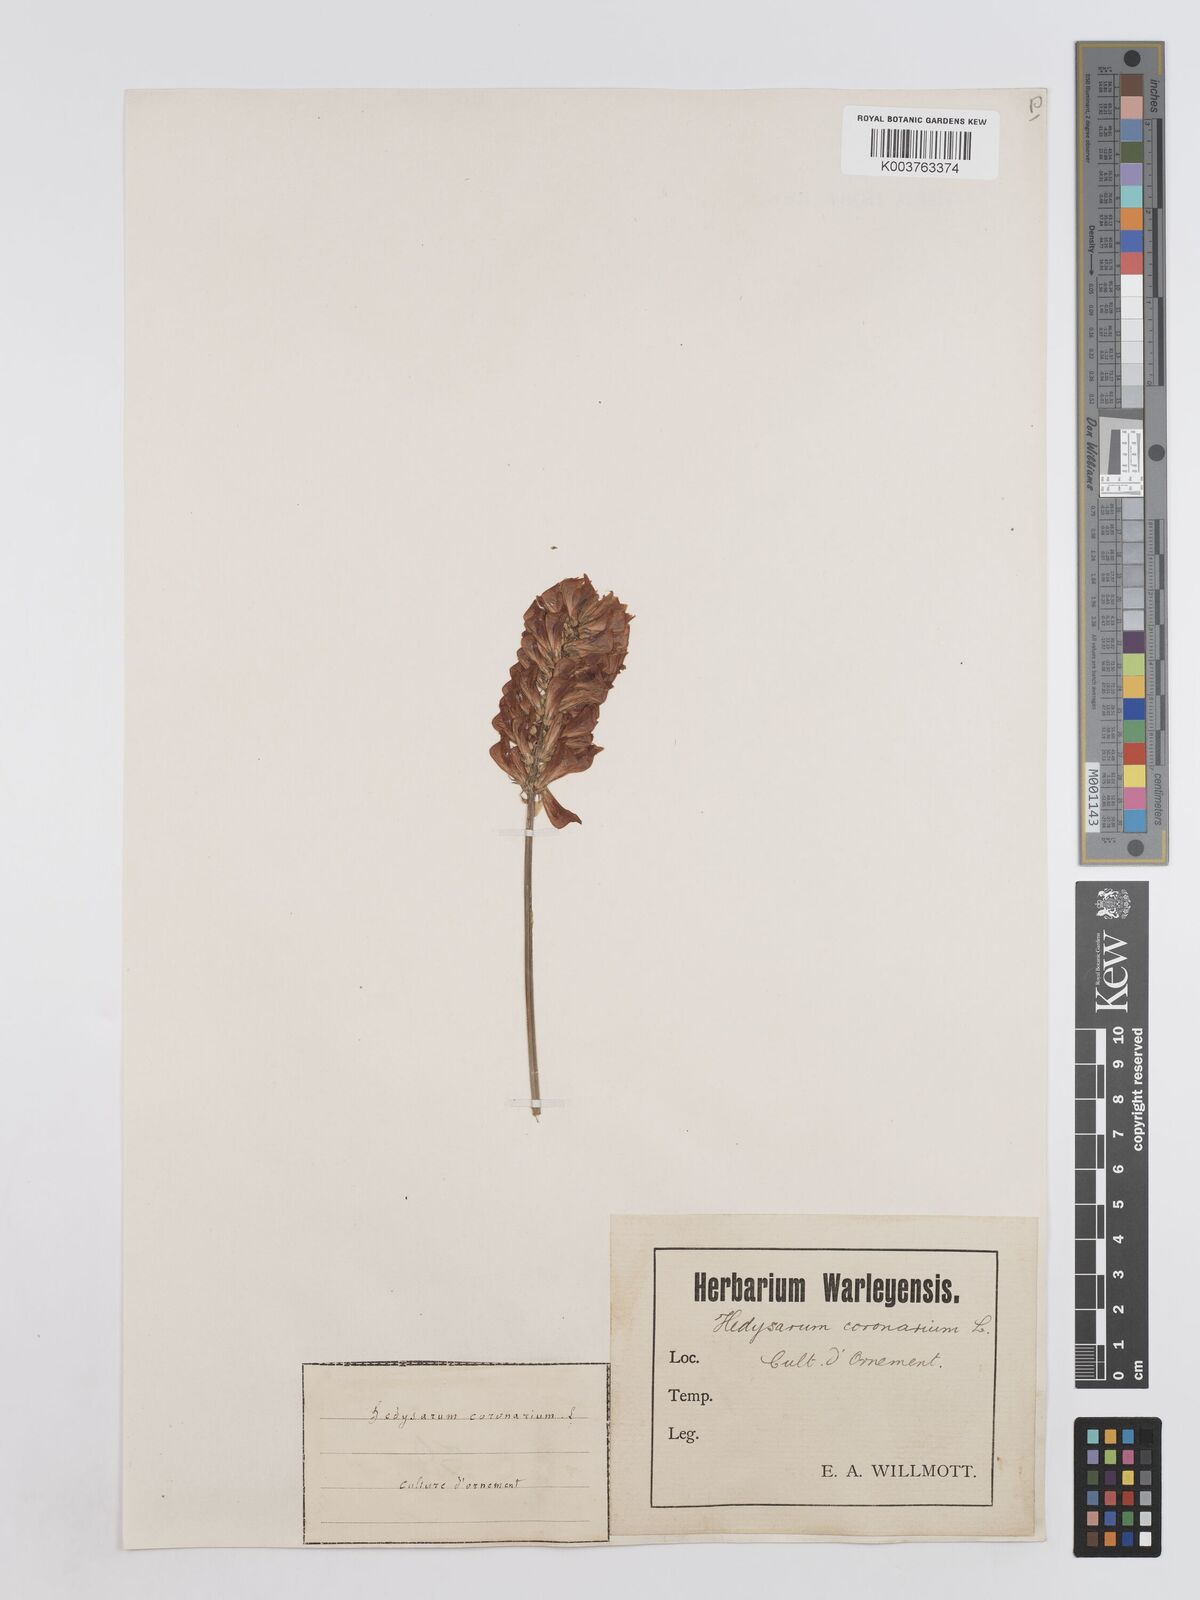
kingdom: Plantae
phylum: Tracheophyta
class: Magnoliopsida
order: Fabales
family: Fabaceae
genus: Sulla
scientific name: Sulla coronaria
